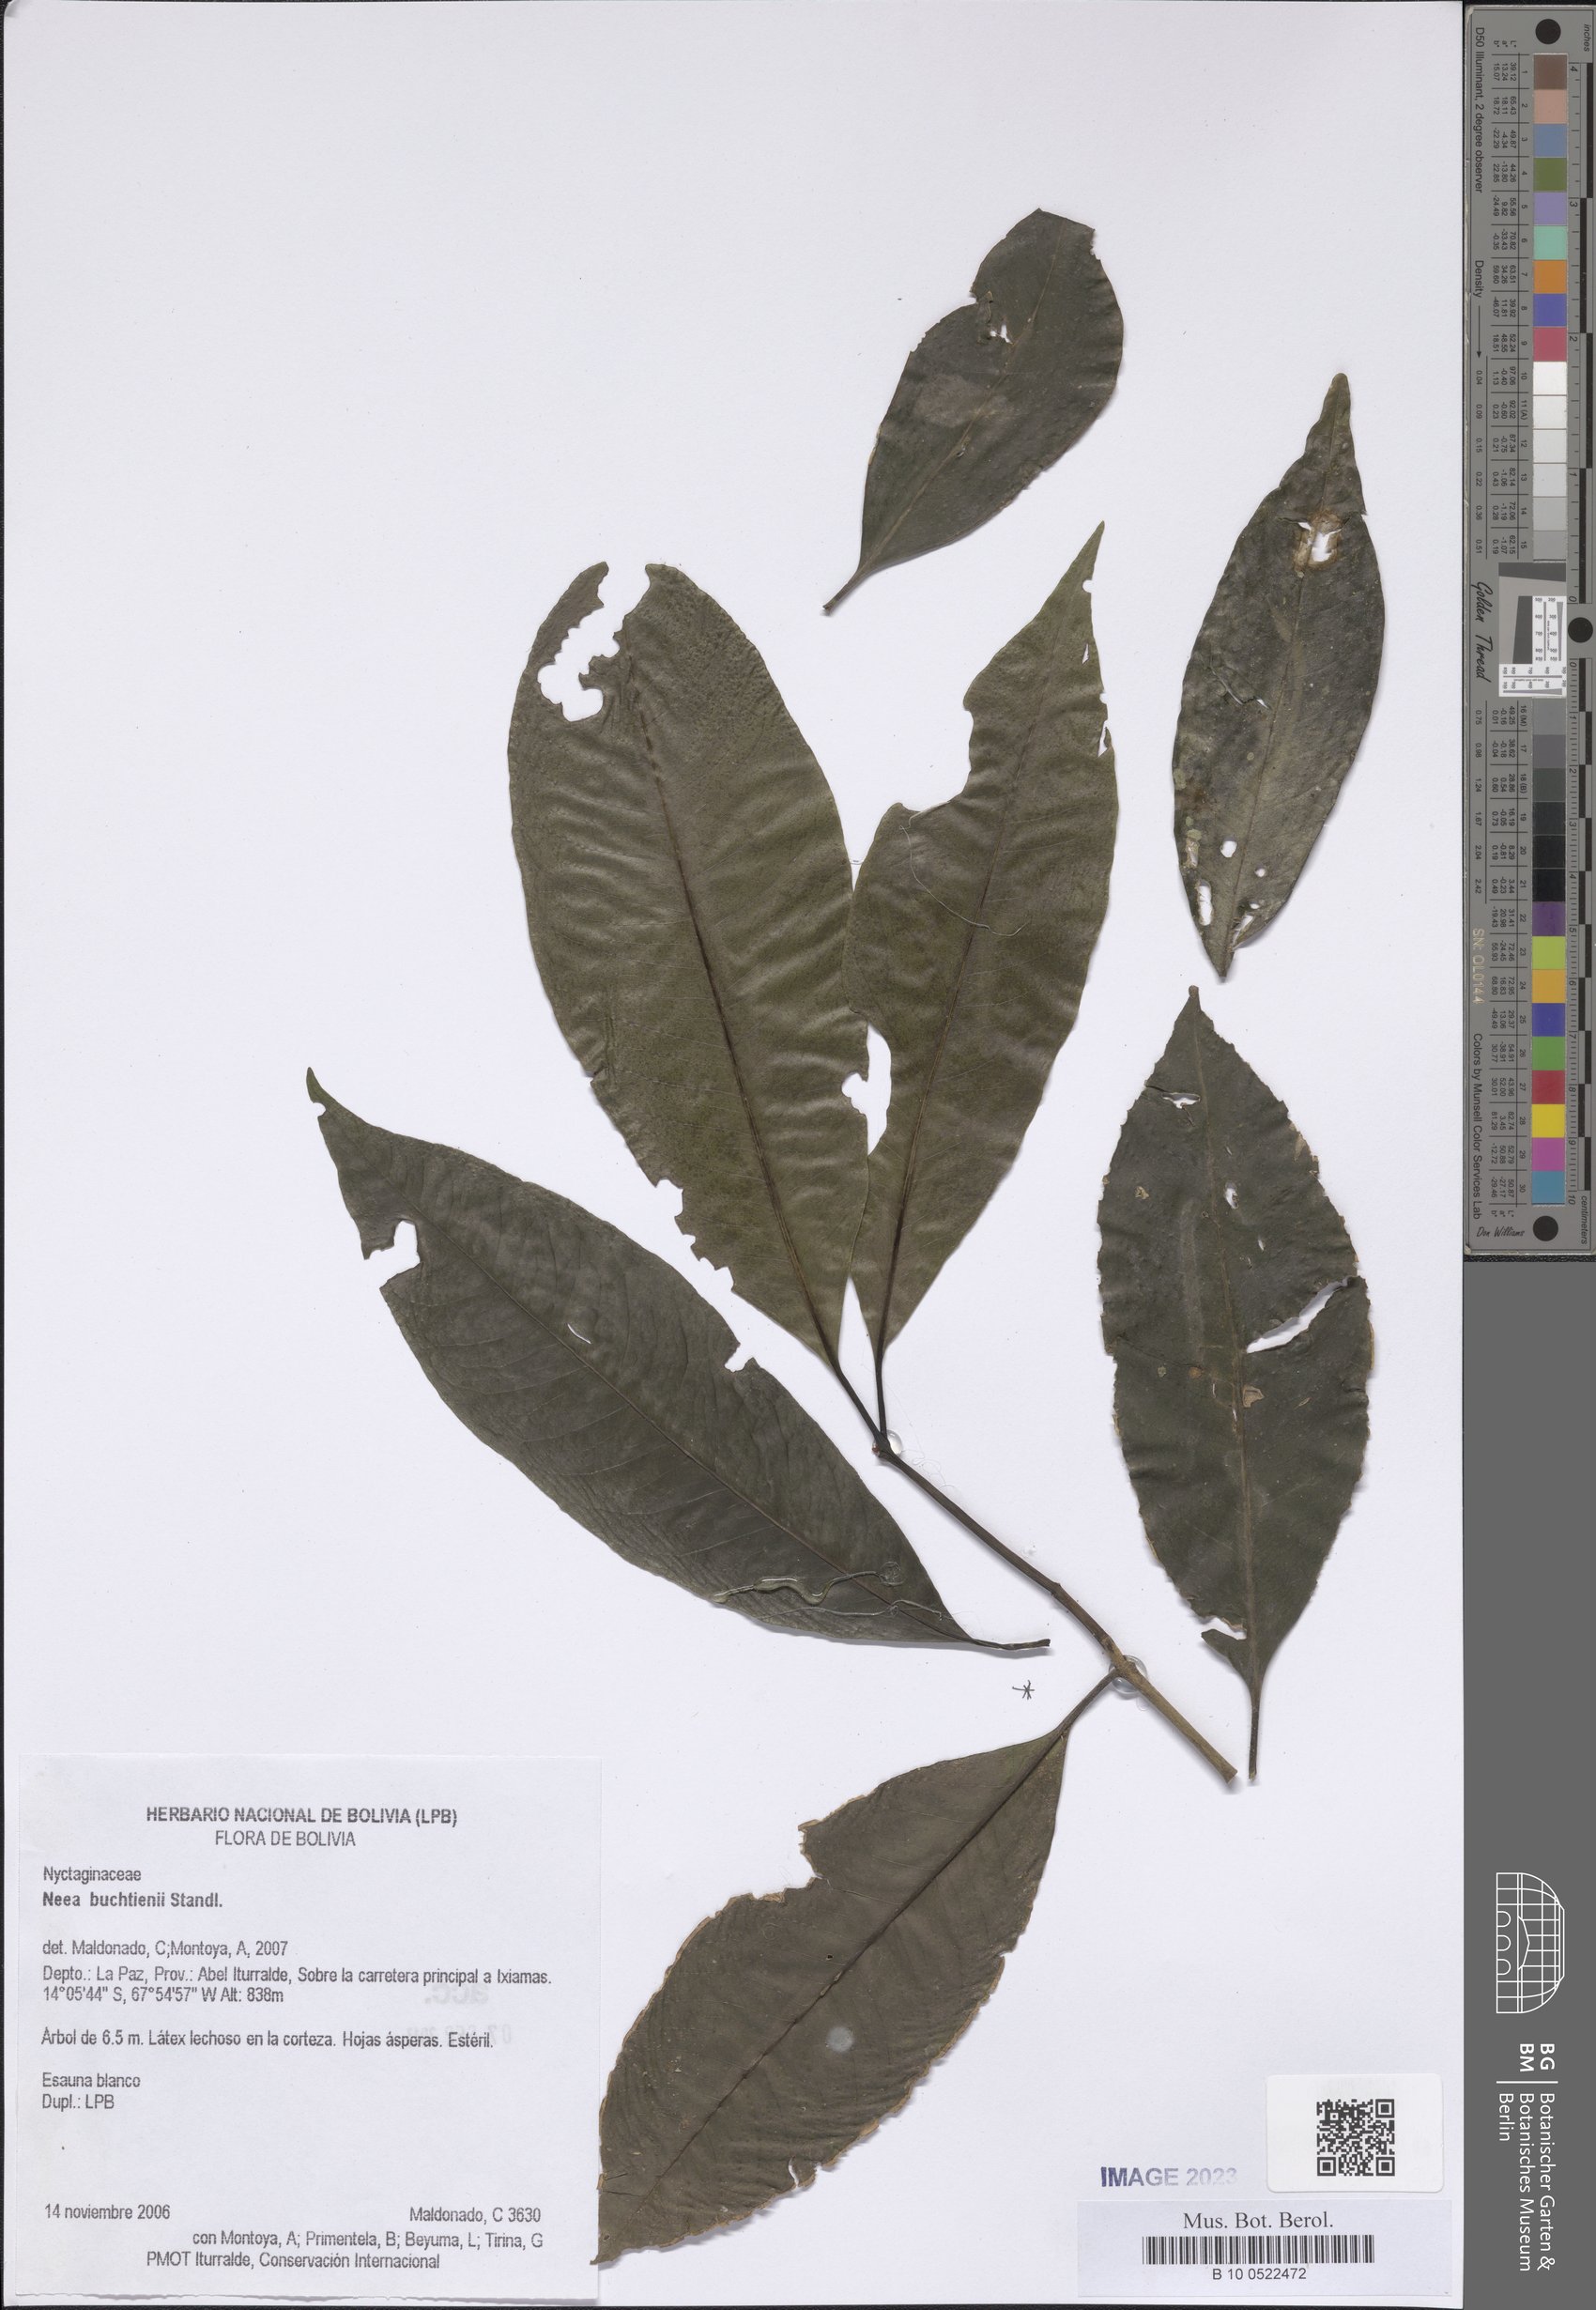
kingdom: Plantae
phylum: Tracheophyta
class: Magnoliopsida
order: Caryophyllales
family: Nyctaginaceae
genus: Neea
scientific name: Neea
